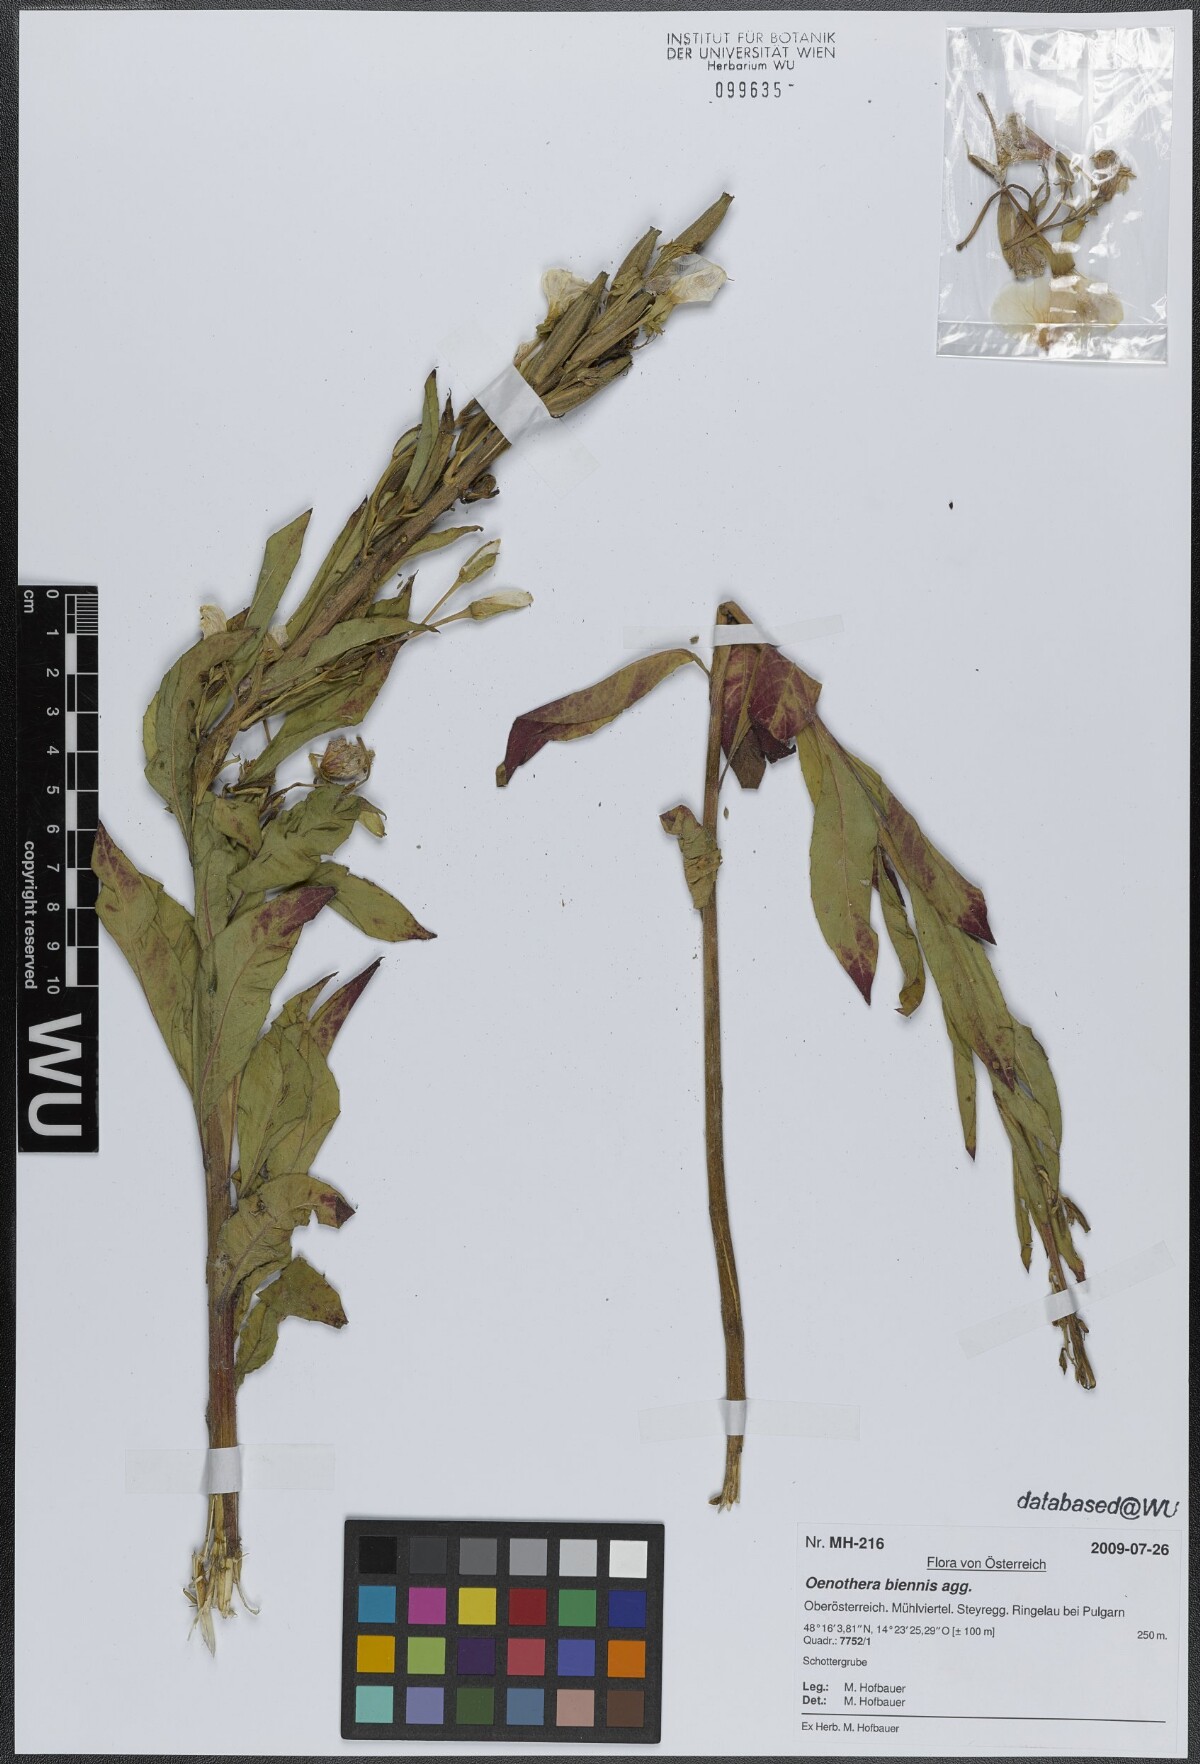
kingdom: Plantae
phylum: Tracheophyta
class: Magnoliopsida
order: Myrtales
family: Onagraceae
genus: Oenothera
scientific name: Oenothera biennis
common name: Common evening-primrose
